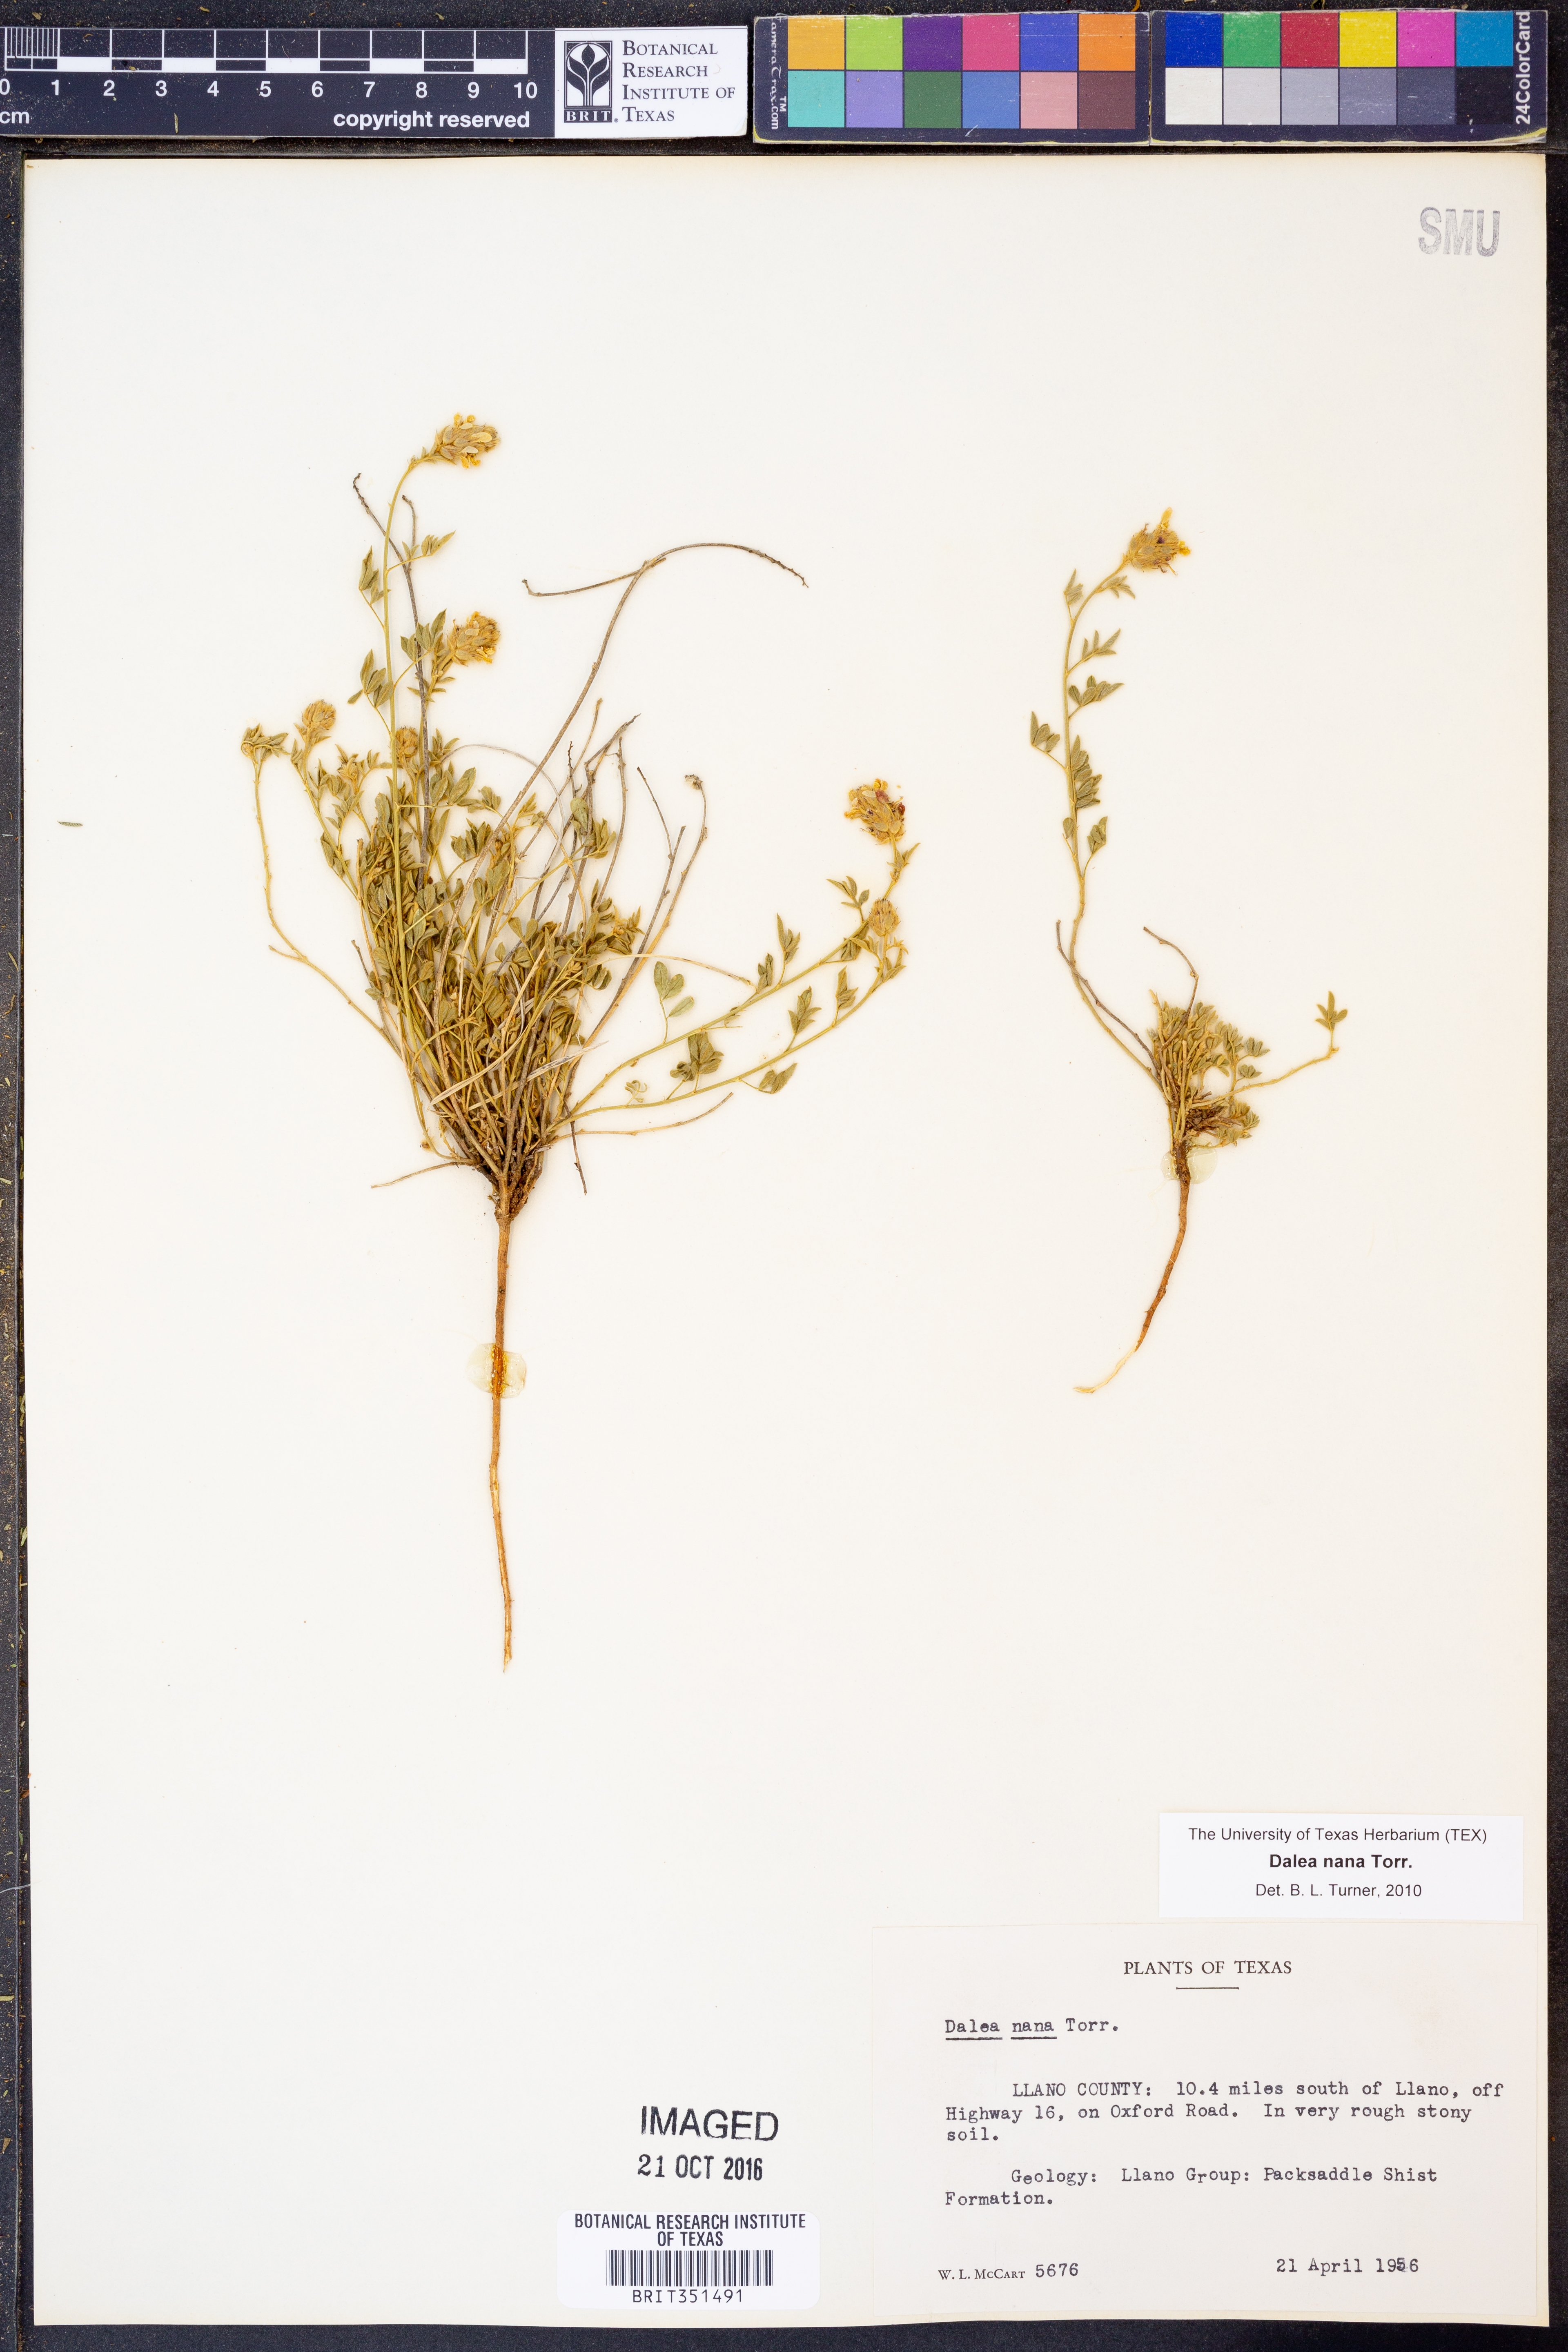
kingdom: Plantae
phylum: Tracheophyta
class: Magnoliopsida
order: Fabales
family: Fabaceae
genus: Dalea
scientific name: Dalea nana
